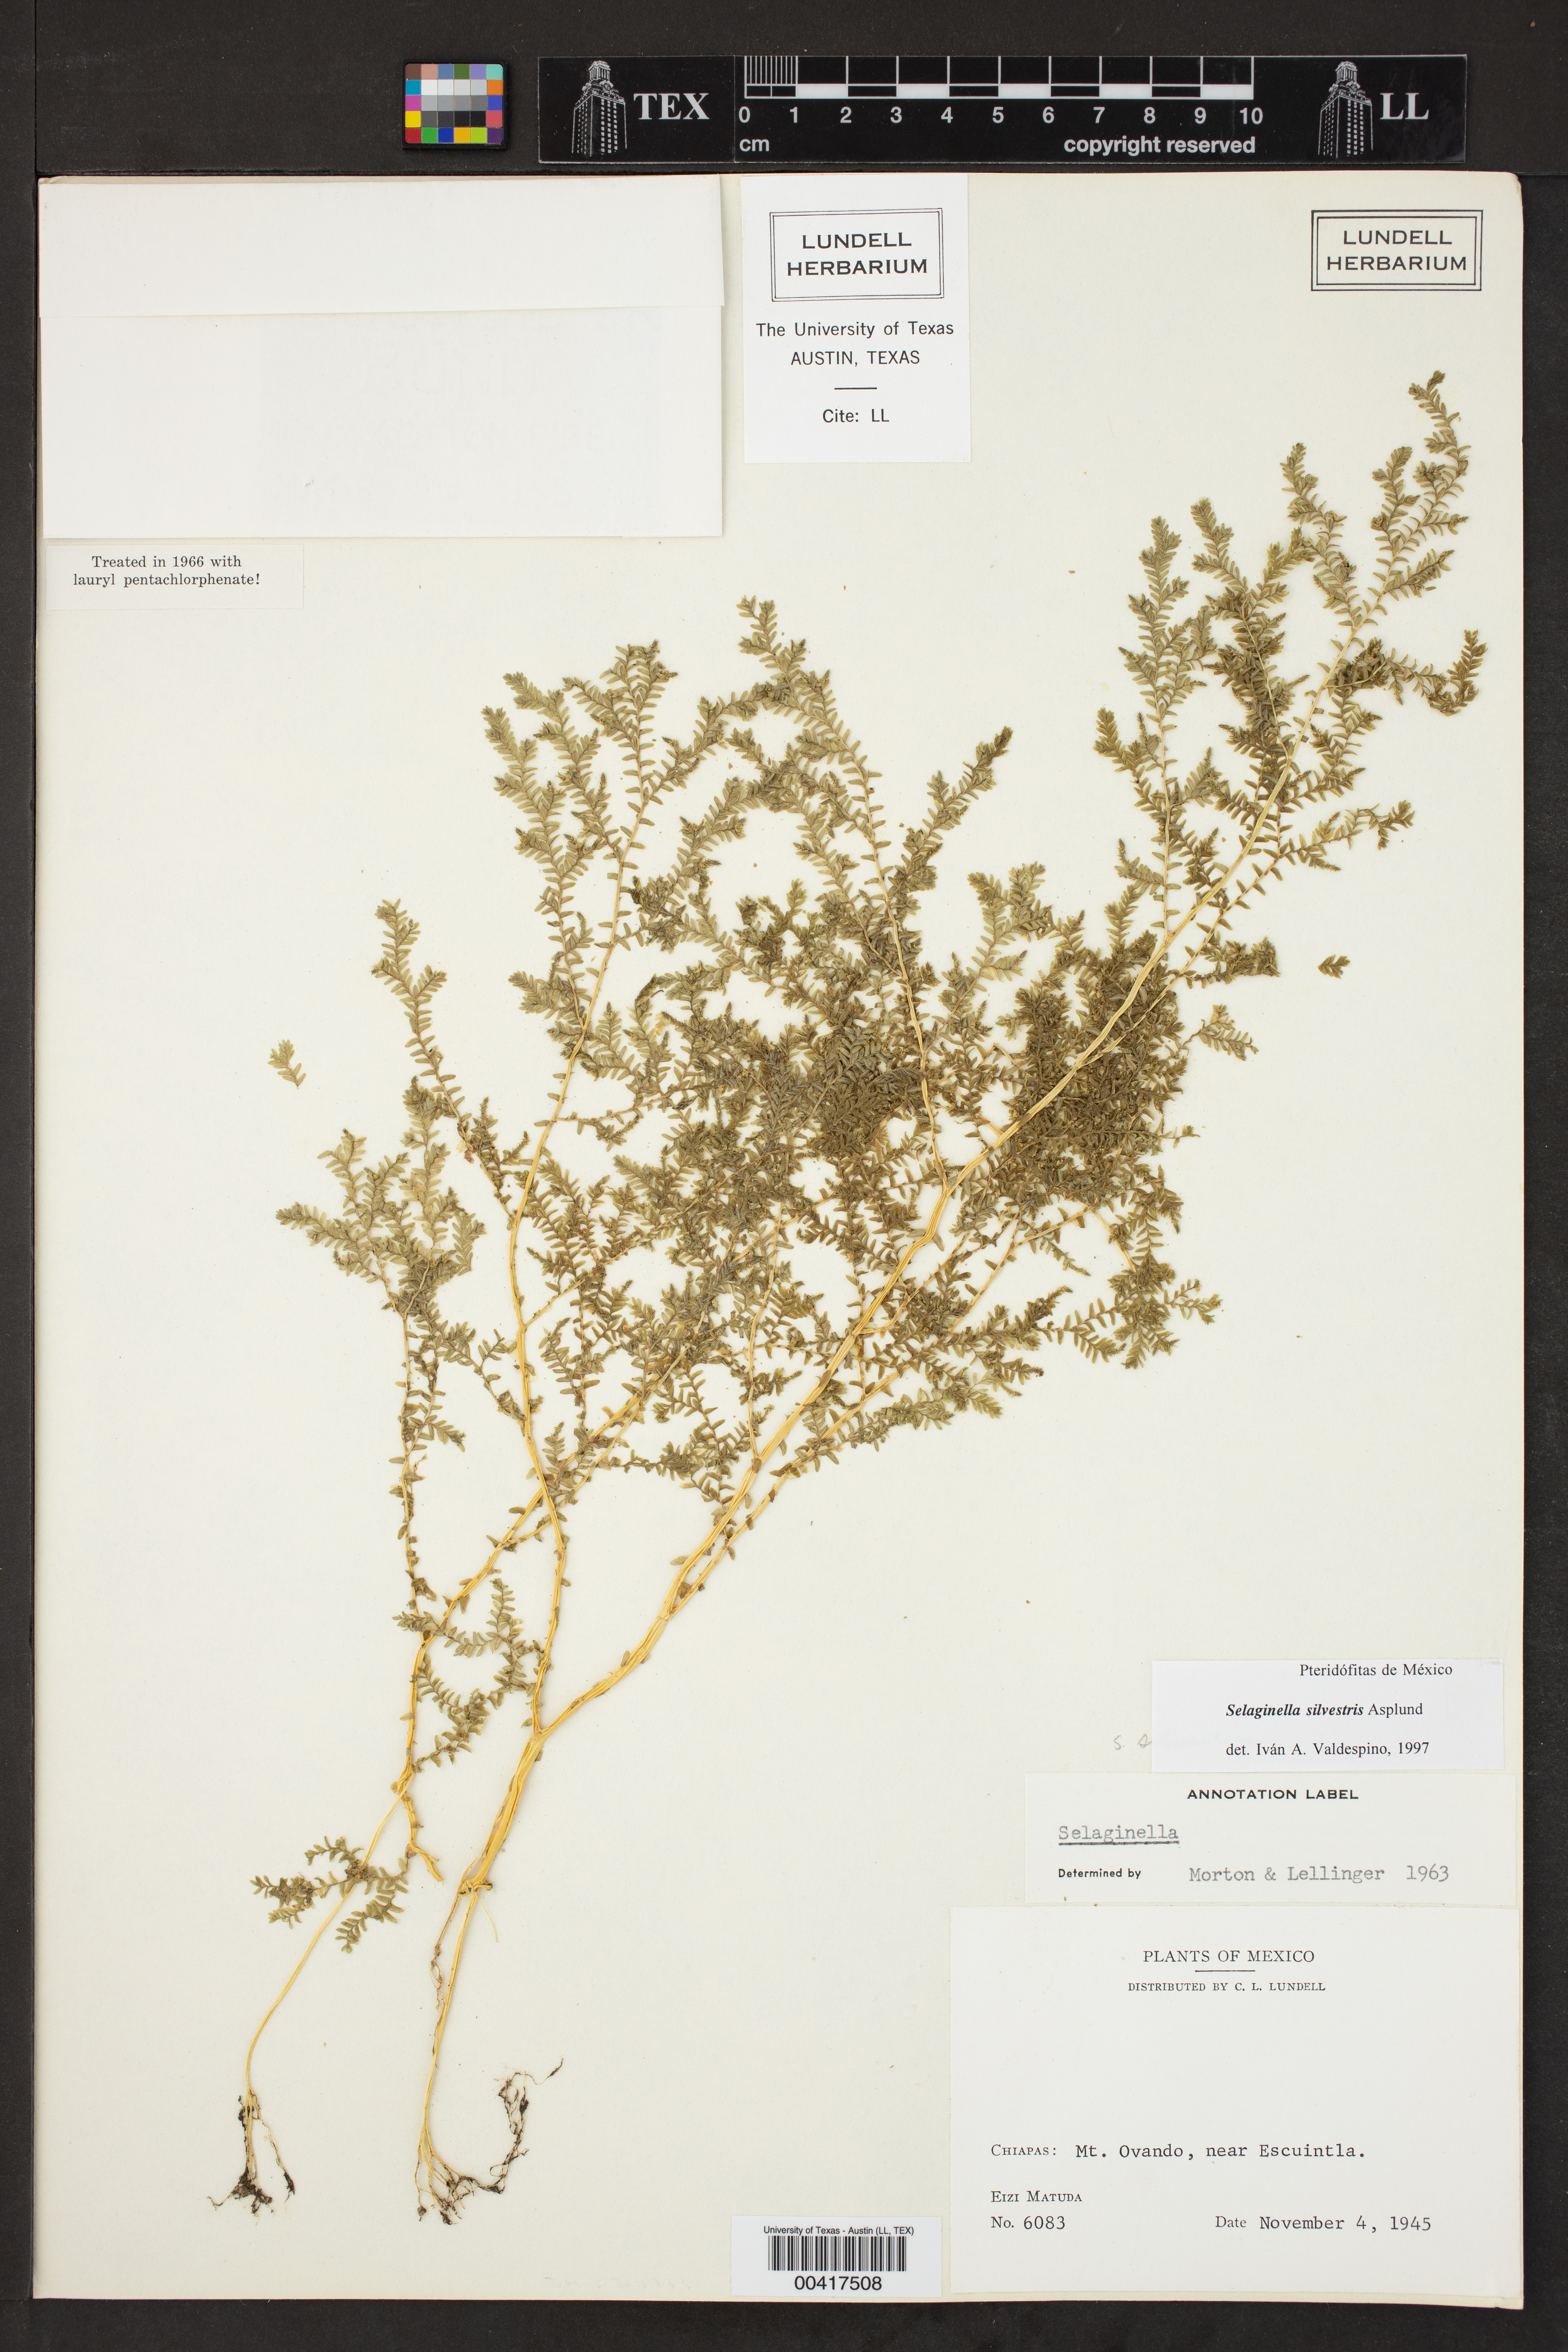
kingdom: Plantae
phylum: Tracheophyta
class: Lycopodiopsida
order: Selaginellales
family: Selaginellaceae
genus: Selaginella
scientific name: Selaginella silvestris
